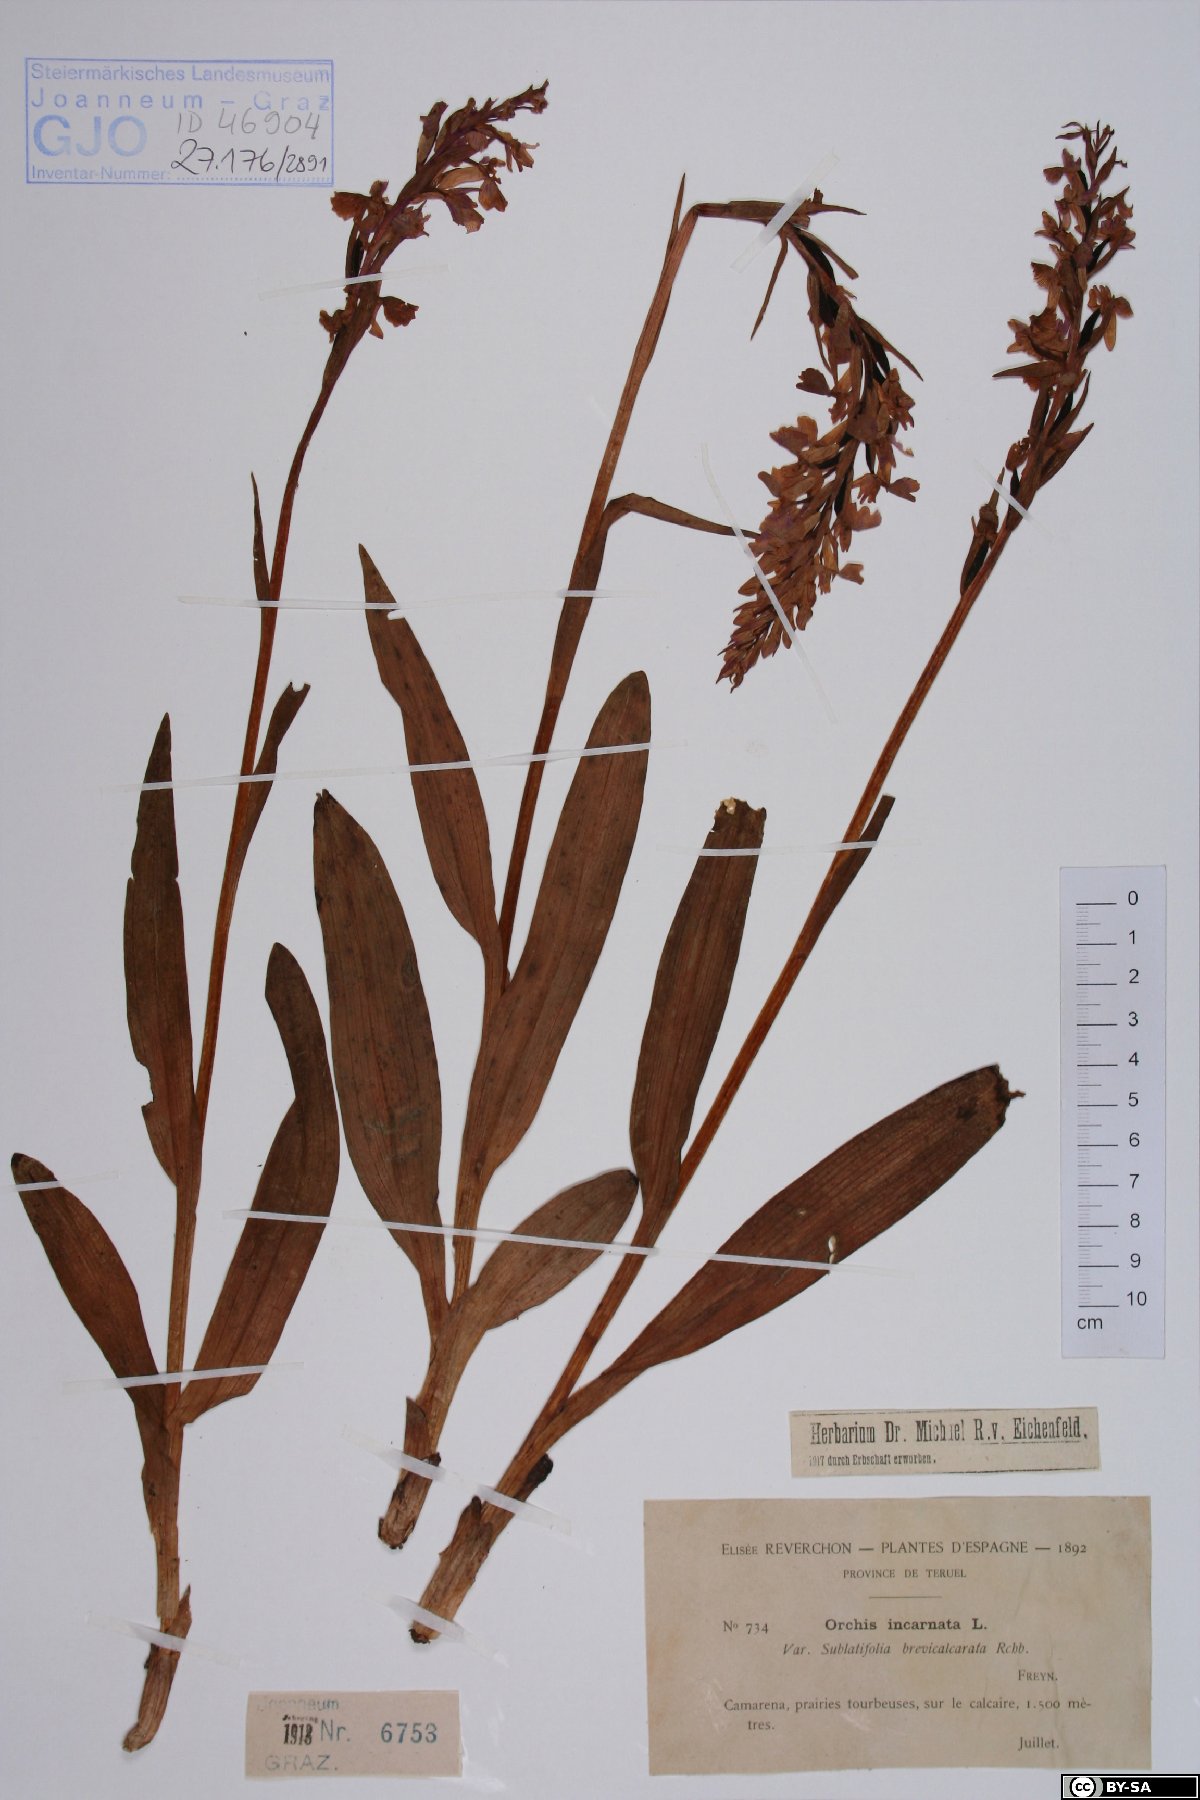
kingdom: Plantae
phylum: Tracheophyta
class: Liliopsida
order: Asparagales
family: Orchidaceae
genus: Dactylorhiza
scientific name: Dactylorhiza incarnata
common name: Early marsh-orchid
